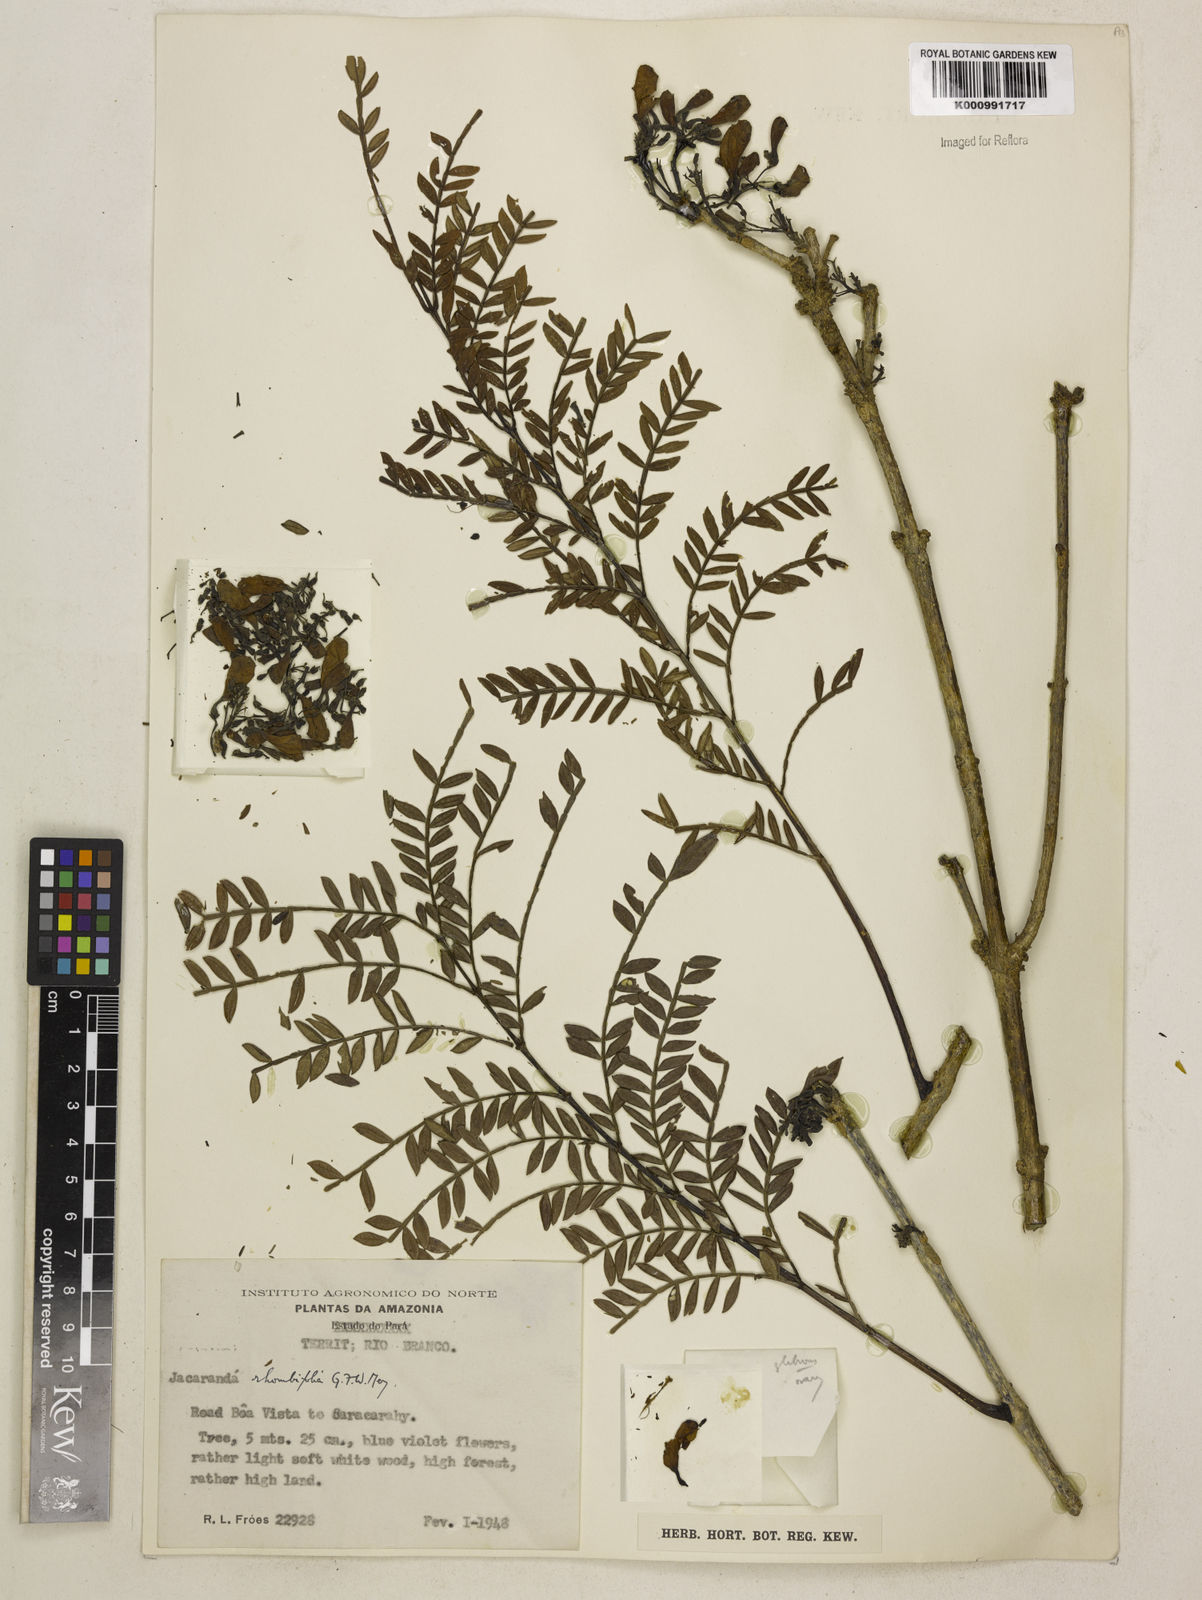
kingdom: Plantae
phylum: Tracheophyta
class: Magnoliopsida
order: Lamiales
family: Bignoniaceae
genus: Jacaranda
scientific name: Jacaranda obtusifolia
